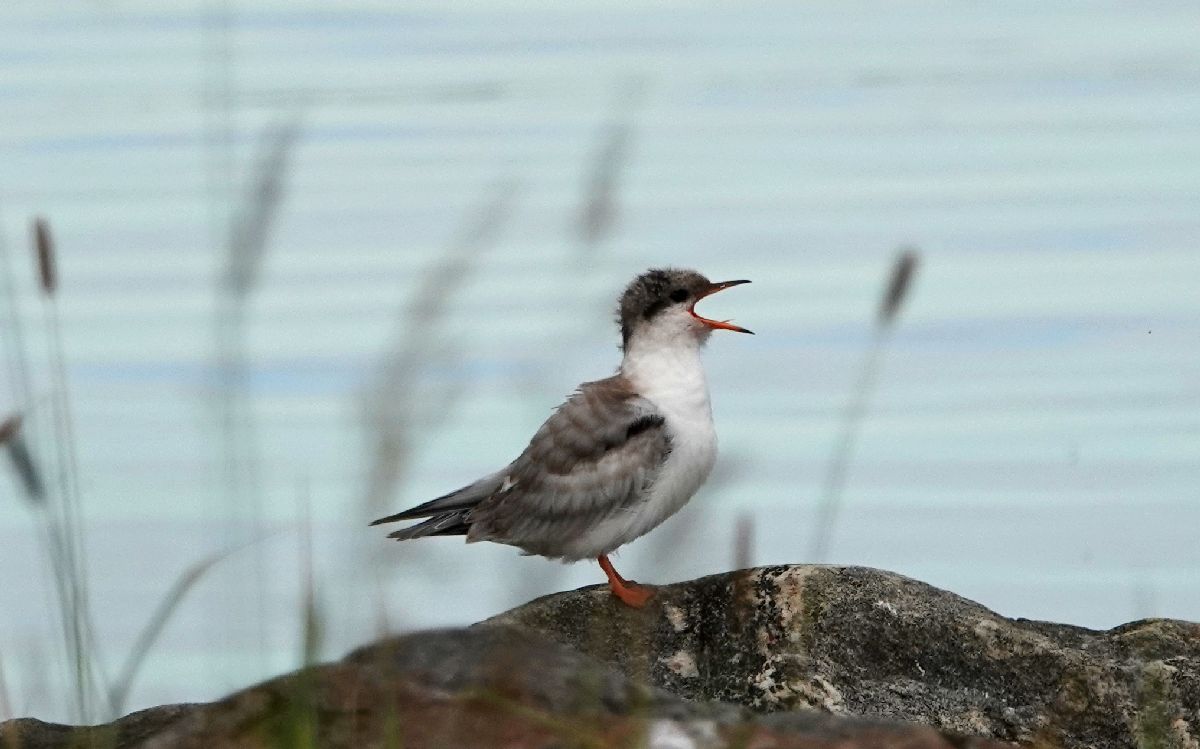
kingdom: Animalia
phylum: Chordata
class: Aves
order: Charadriiformes
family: Laridae
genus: Sterna
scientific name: Sterna hirundo
